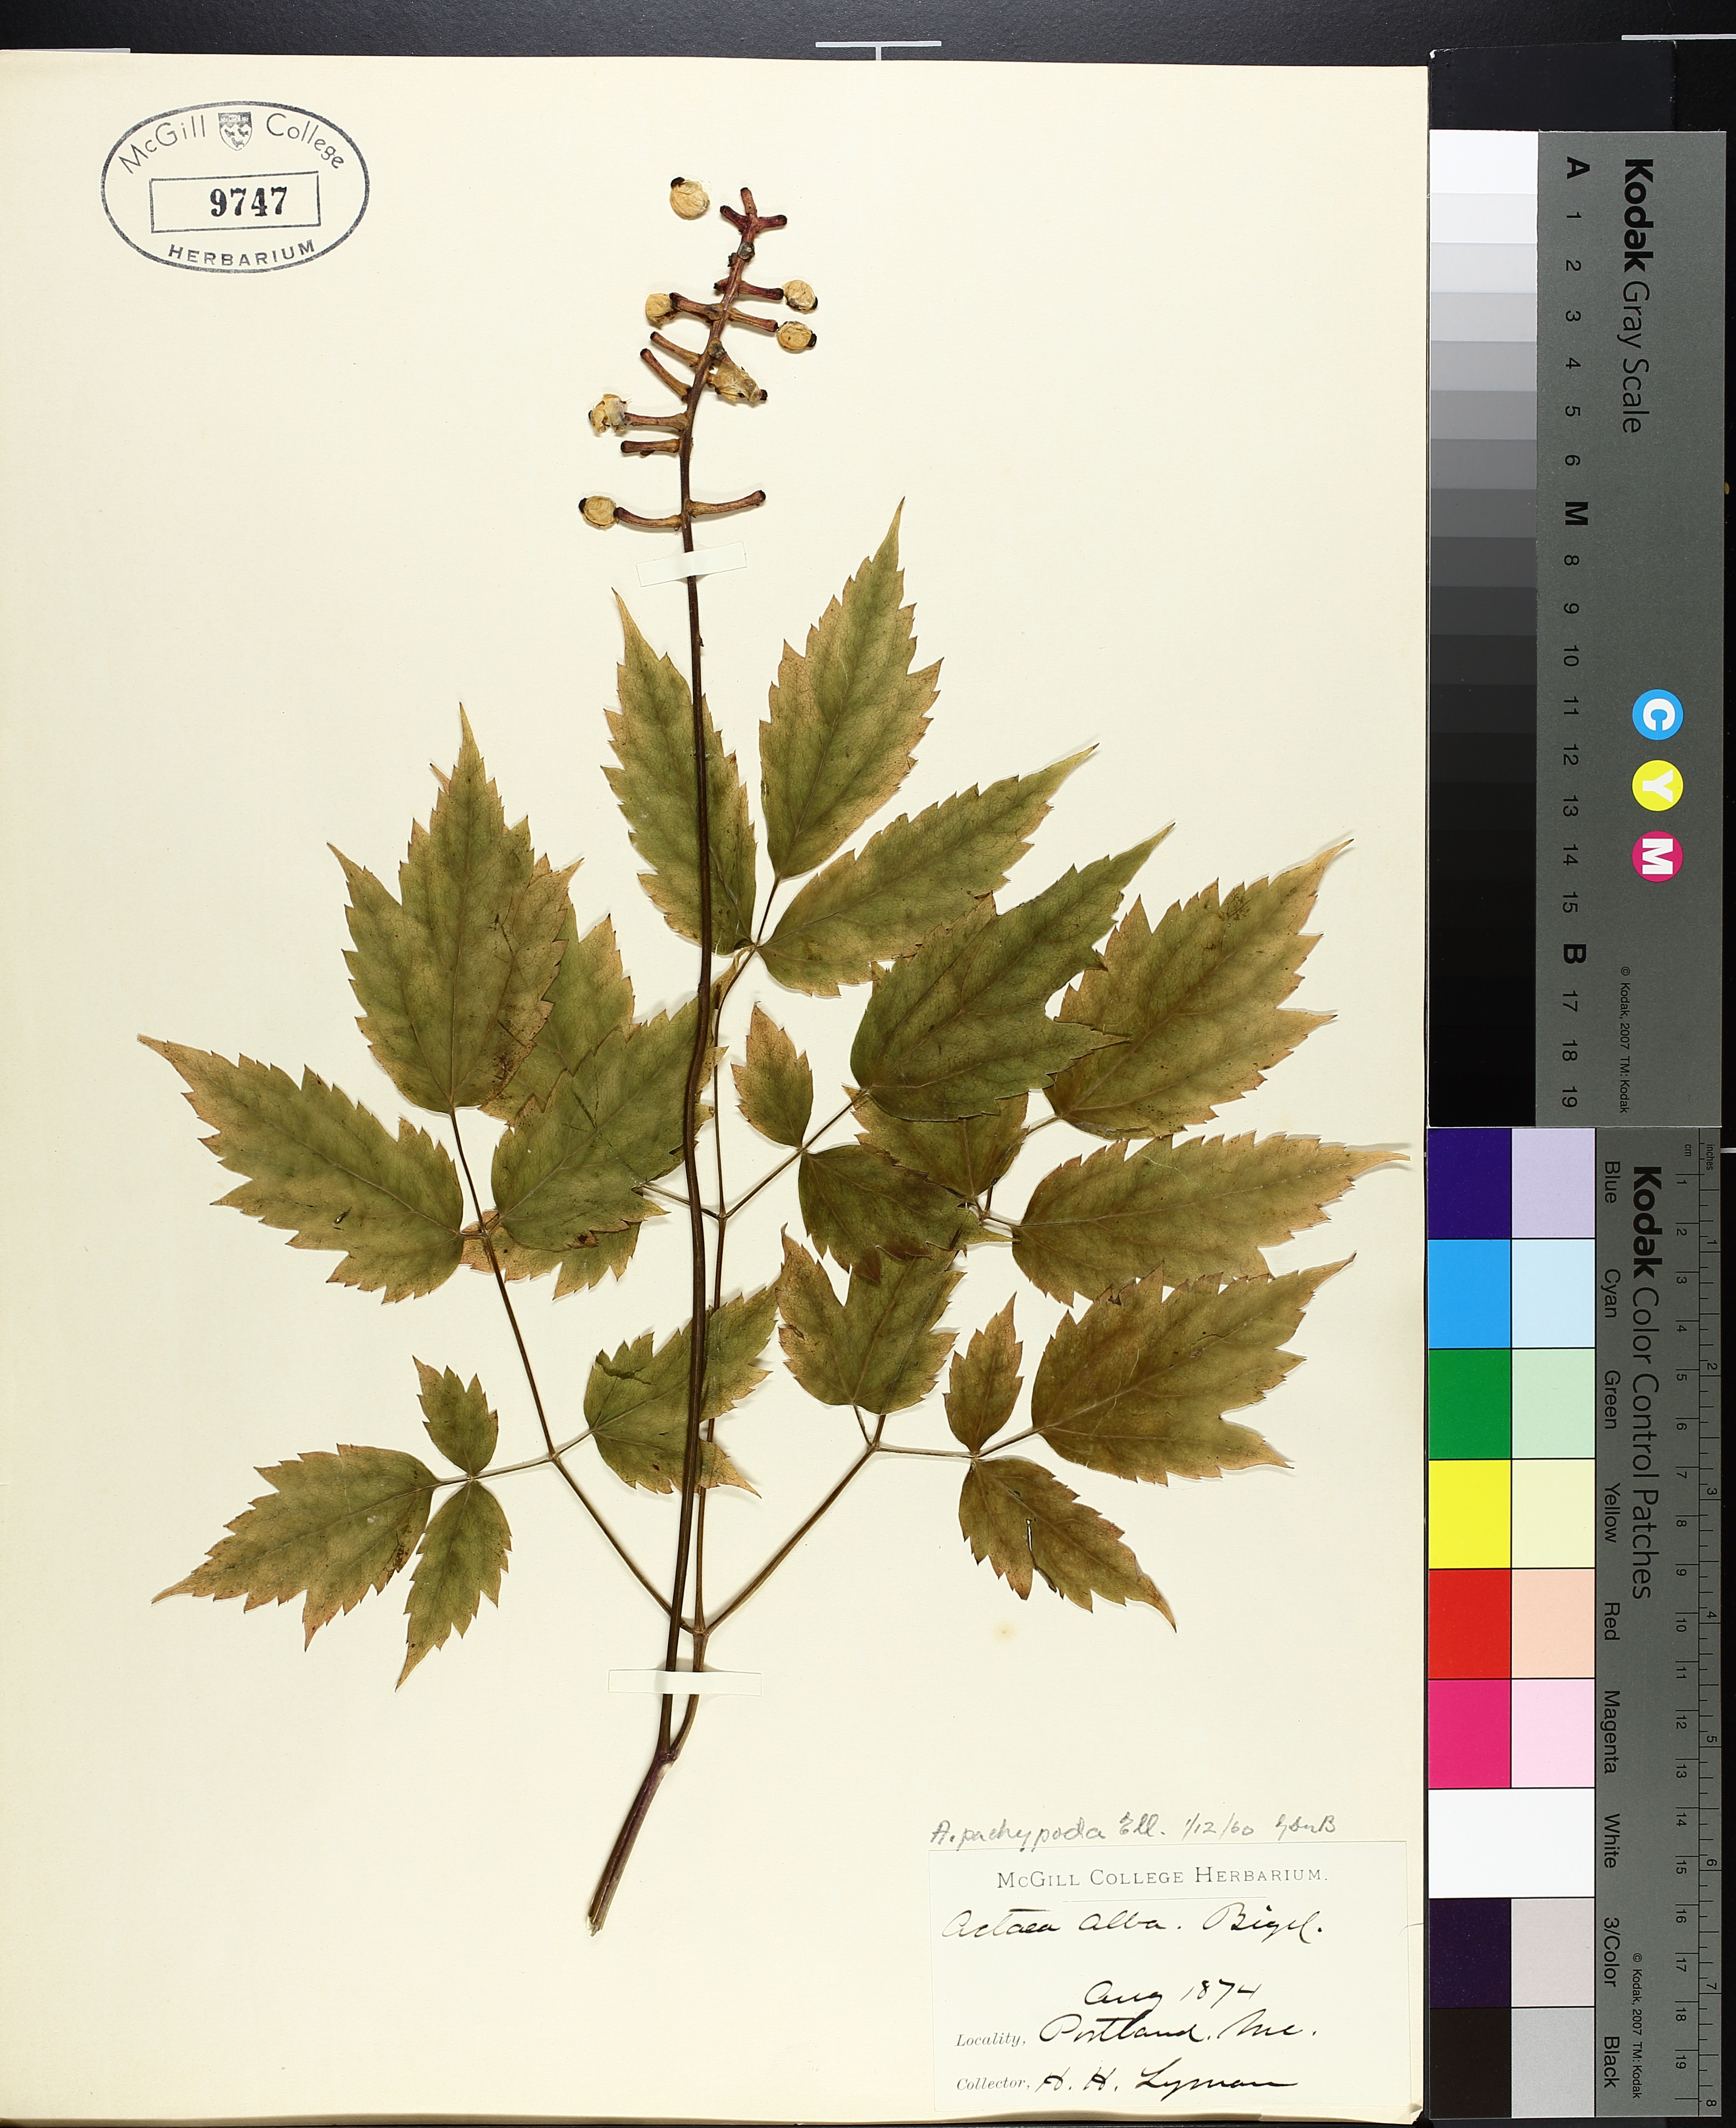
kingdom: Plantae
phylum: Tracheophyta
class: Liliopsida
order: Poales
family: Cyperaceae
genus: Carex
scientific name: Carex tribuloides
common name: Blunt broom sedge
